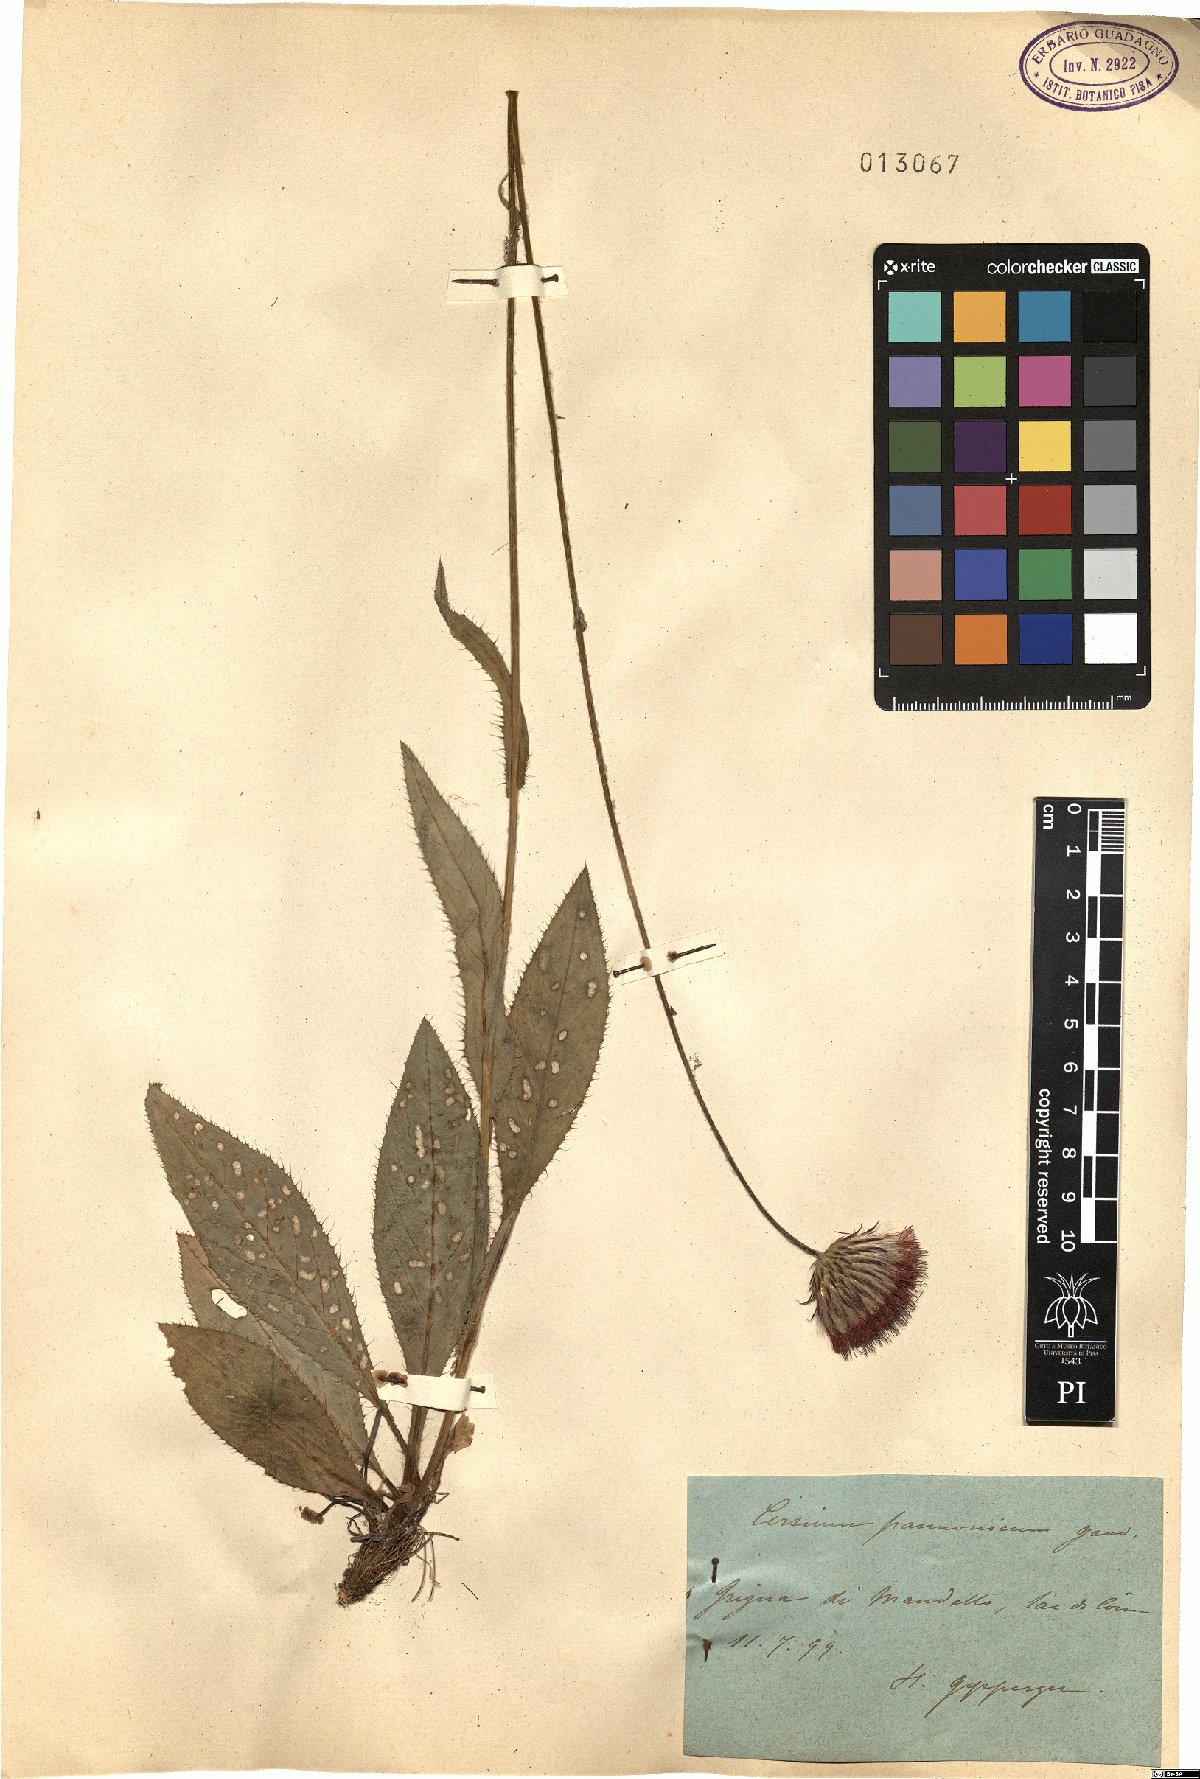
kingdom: Plantae
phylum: Tracheophyta
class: Magnoliopsida
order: Asterales
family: Asteraceae
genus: Cirsium
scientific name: Cirsium pannonicum
